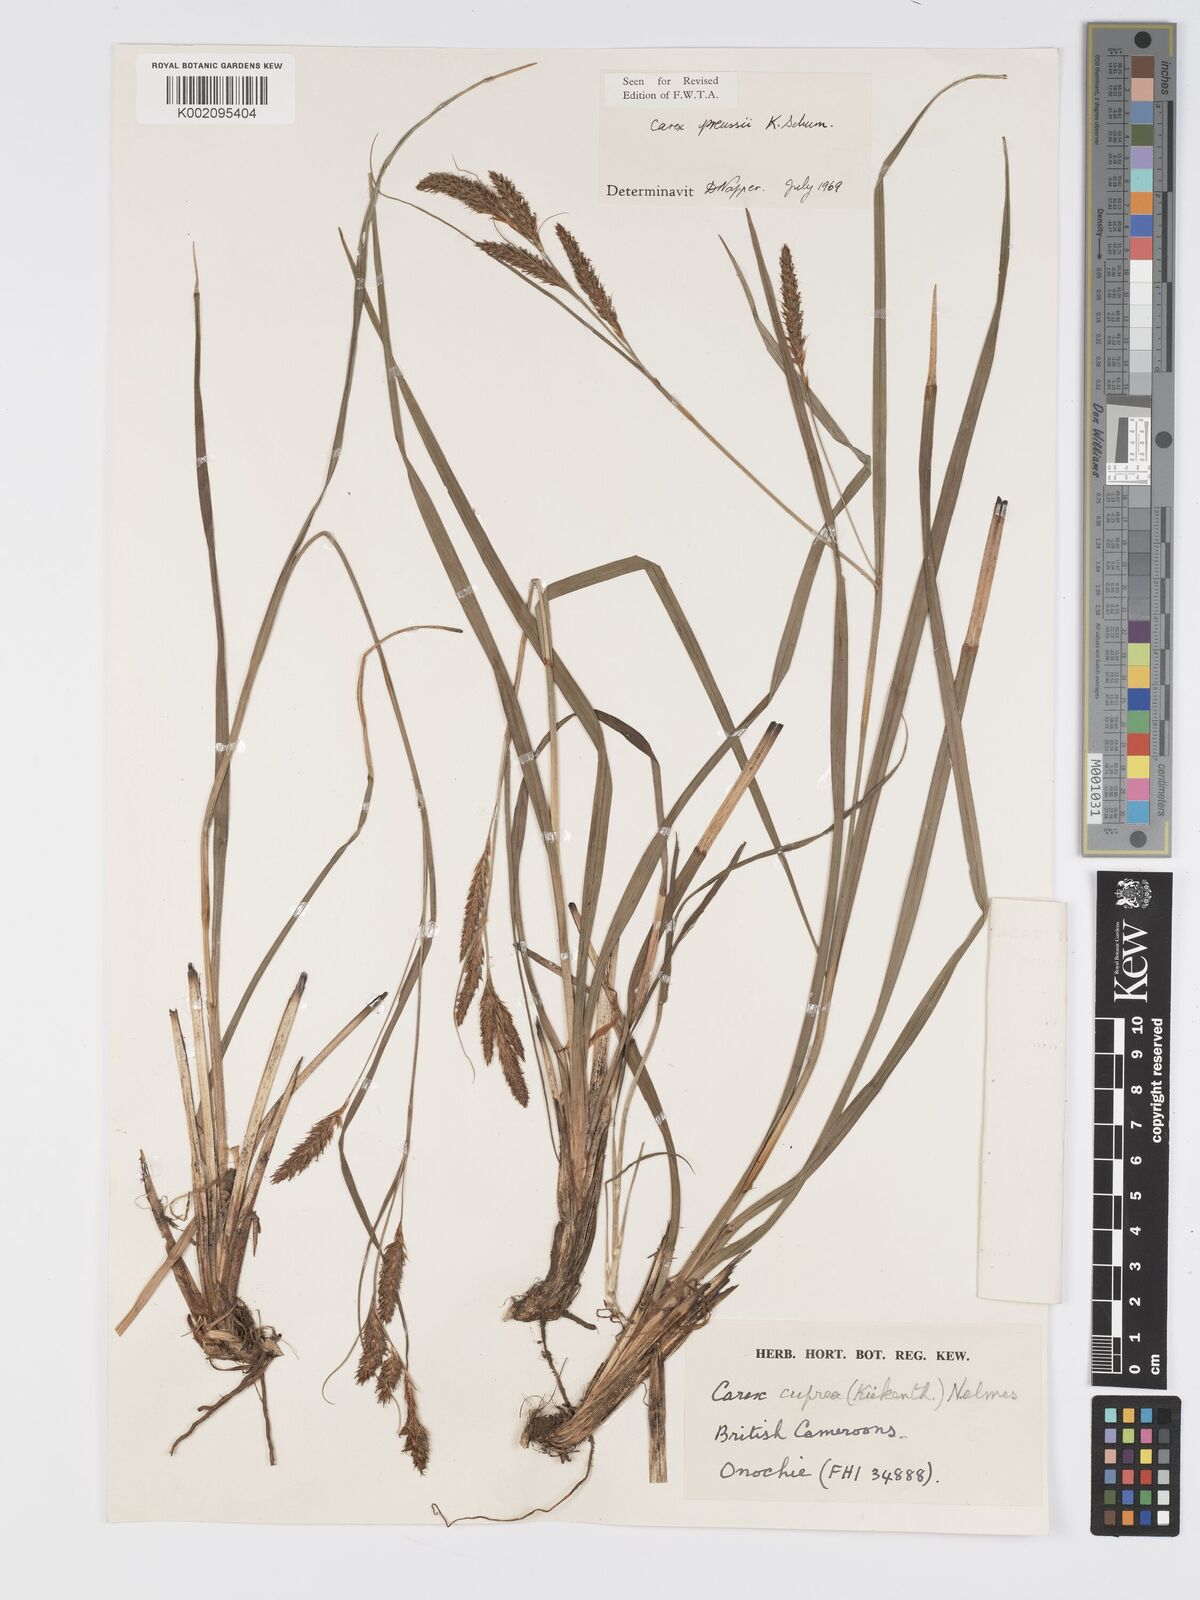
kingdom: Plantae
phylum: Tracheophyta
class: Liliopsida
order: Poales
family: Cyperaceae
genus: Carex
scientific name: Carex petitiana
